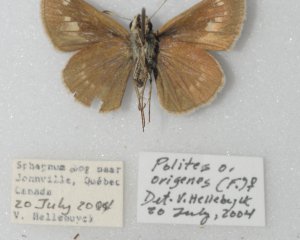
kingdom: Animalia
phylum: Arthropoda
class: Insecta
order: Lepidoptera
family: Hesperiidae
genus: Polites
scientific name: Polites egeremet
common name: Northern Broken-Dash
